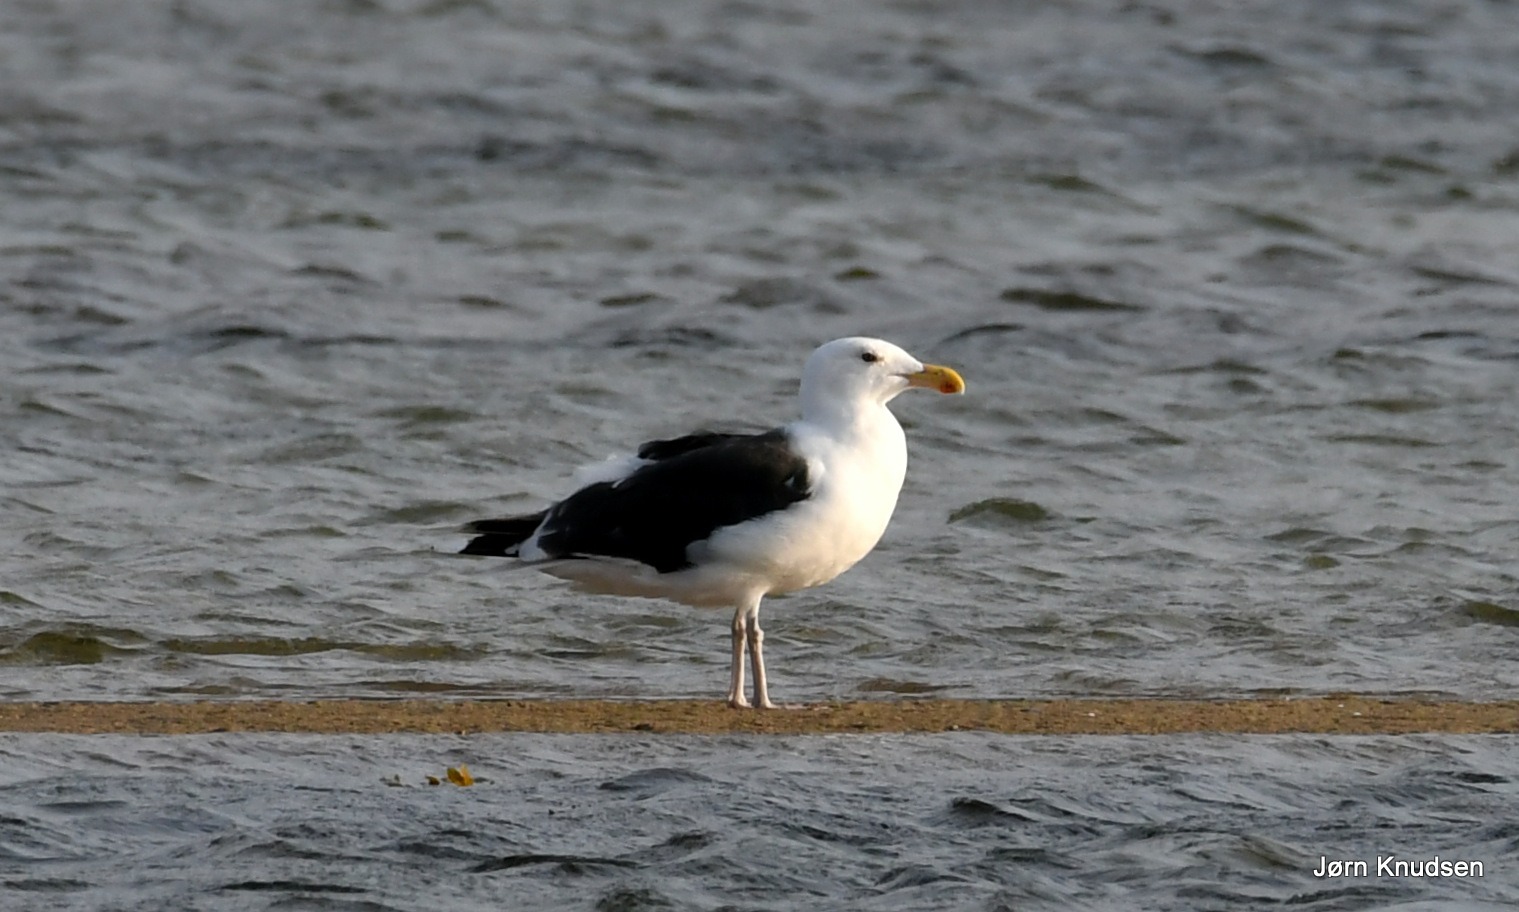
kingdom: Animalia
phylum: Chordata
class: Aves
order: Charadriiformes
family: Laridae
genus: Larus
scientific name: Larus marinus
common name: Svartbag
